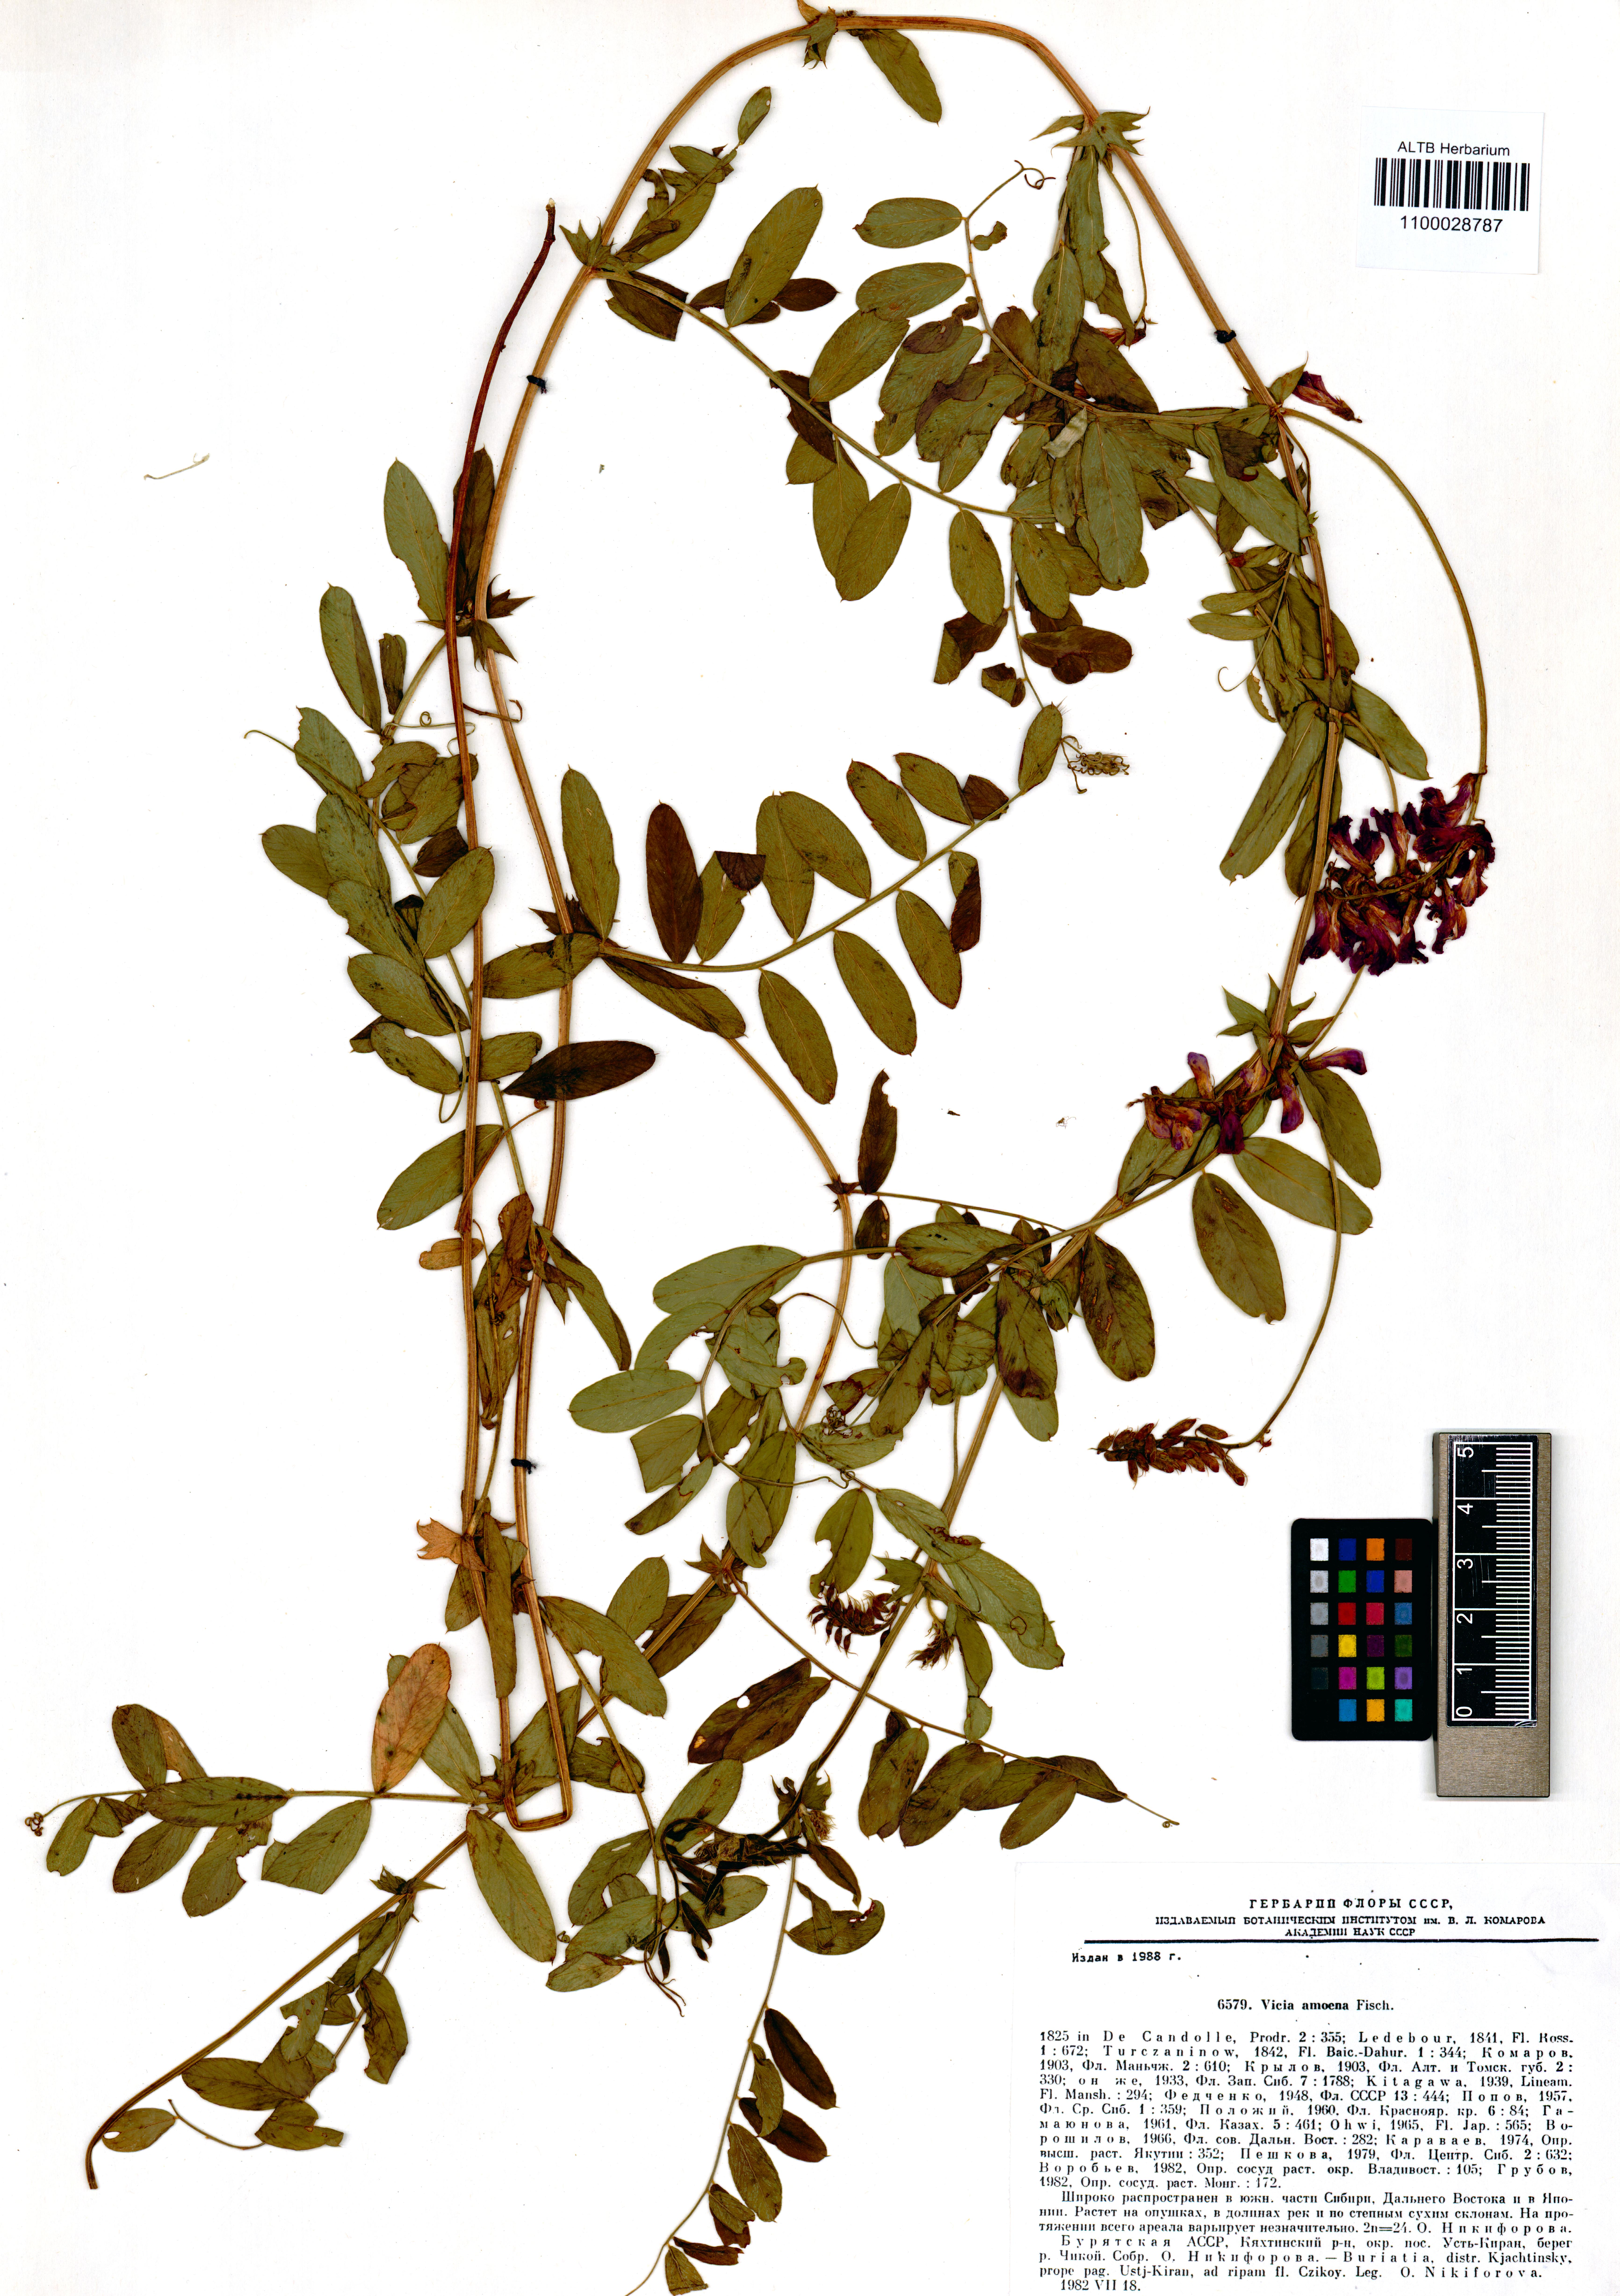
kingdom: Plantae
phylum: Tracheophyta
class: Magnoliopsida
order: Fabales
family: Fabaceae
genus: Vicia
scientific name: Vicia amoena
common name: Cheder ebs
